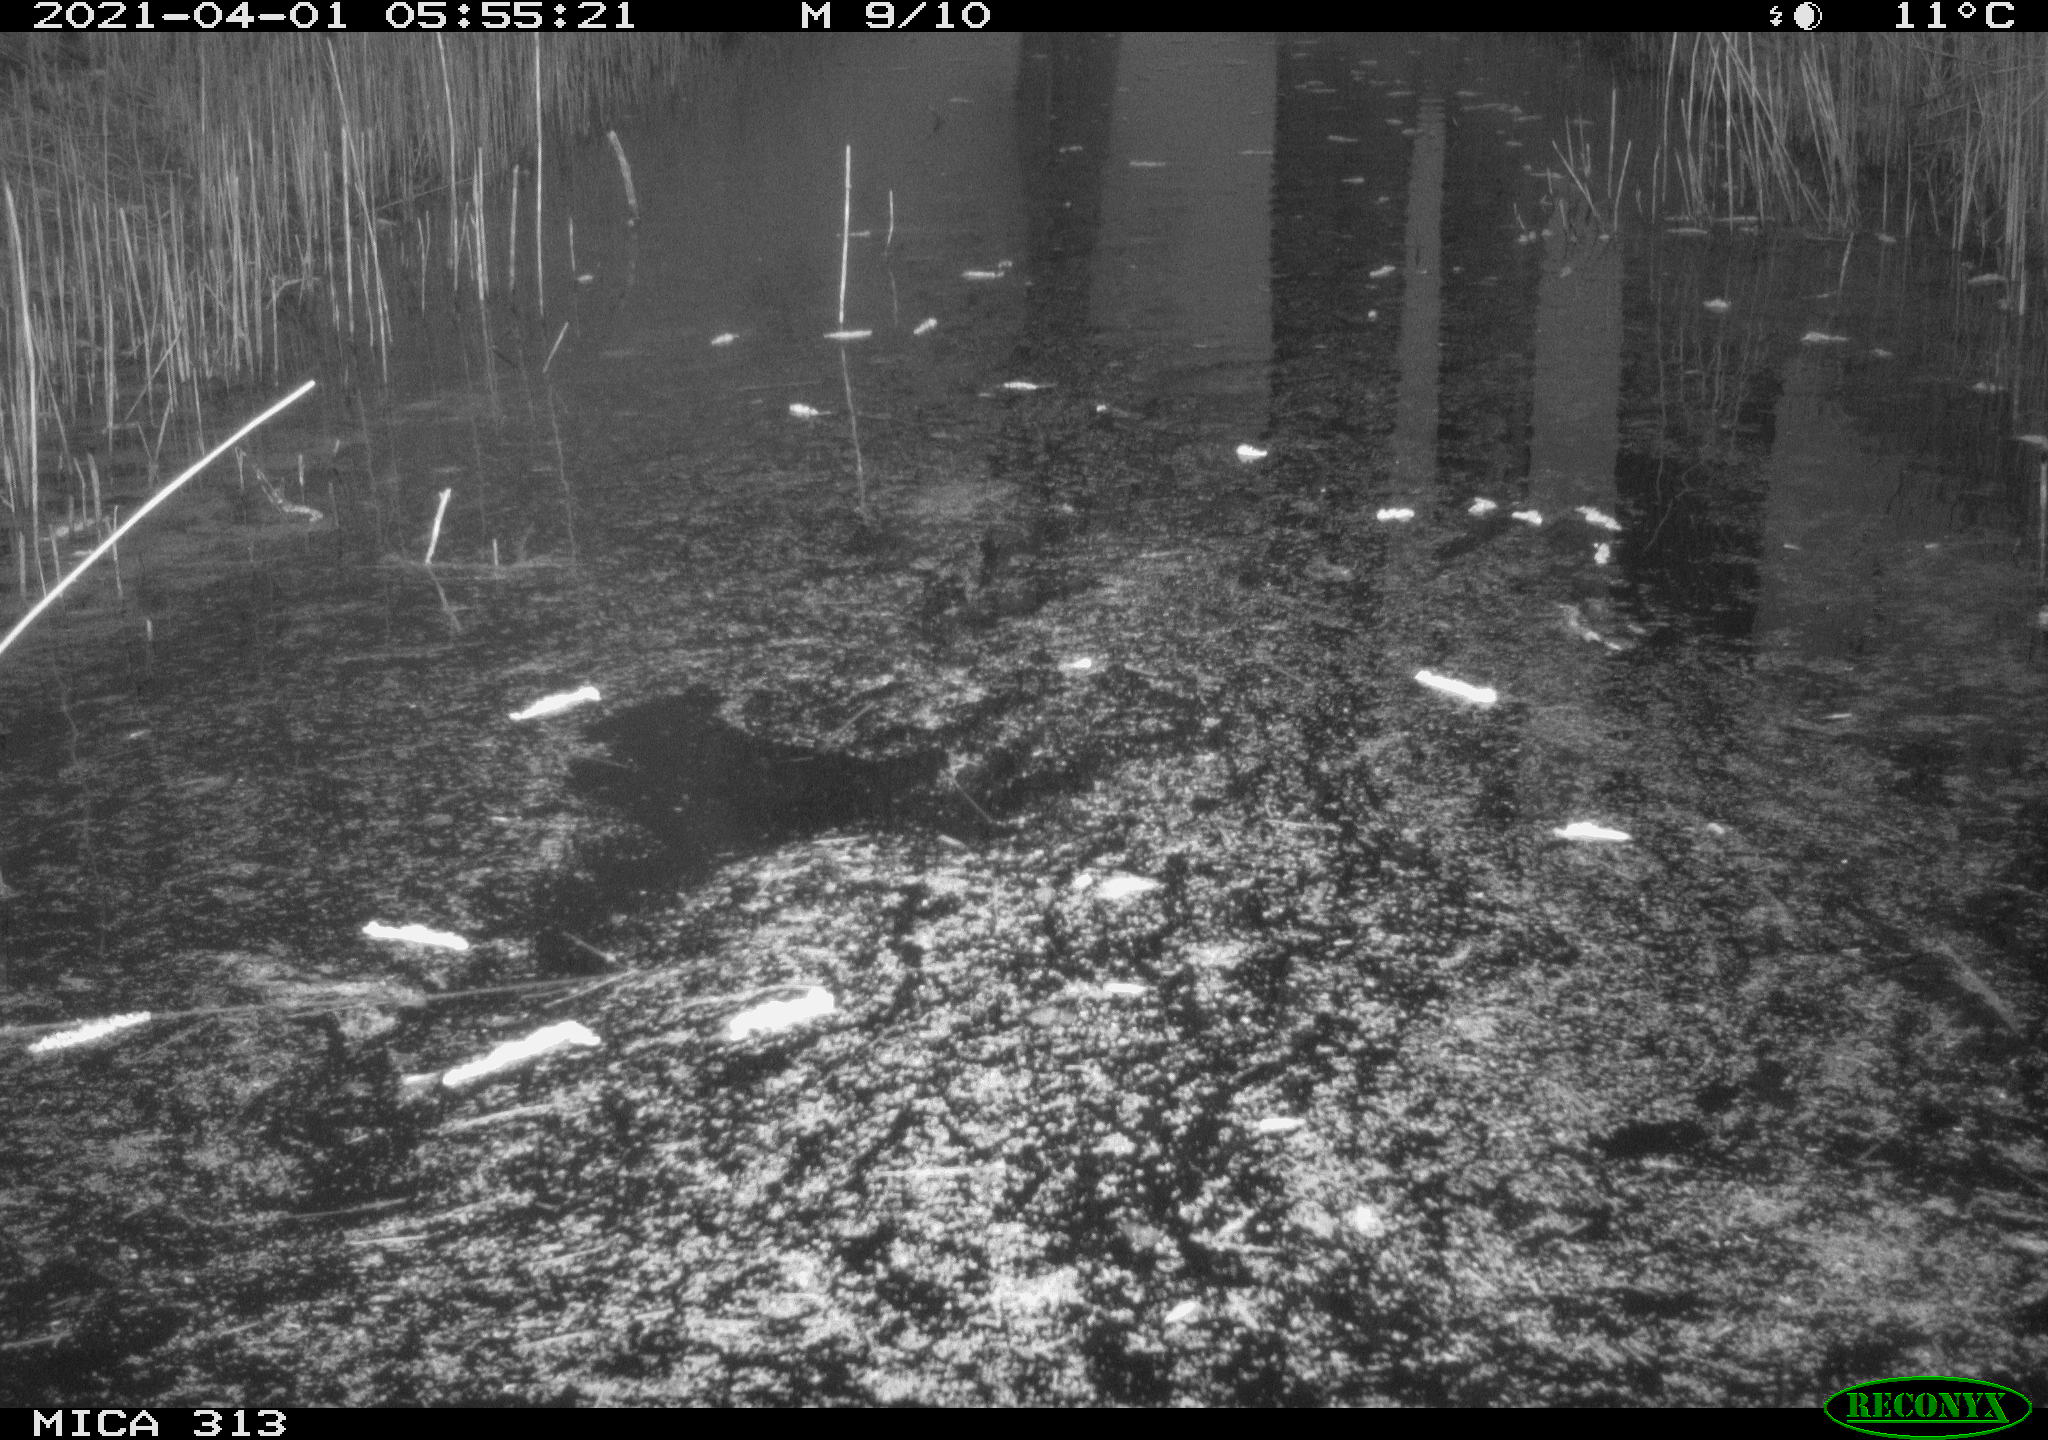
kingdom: Animalia
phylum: Chordata
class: Aves
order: Gruiformes
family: Rallidae
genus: Gallinula
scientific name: Gallinula chloropus
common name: Common moorhen
